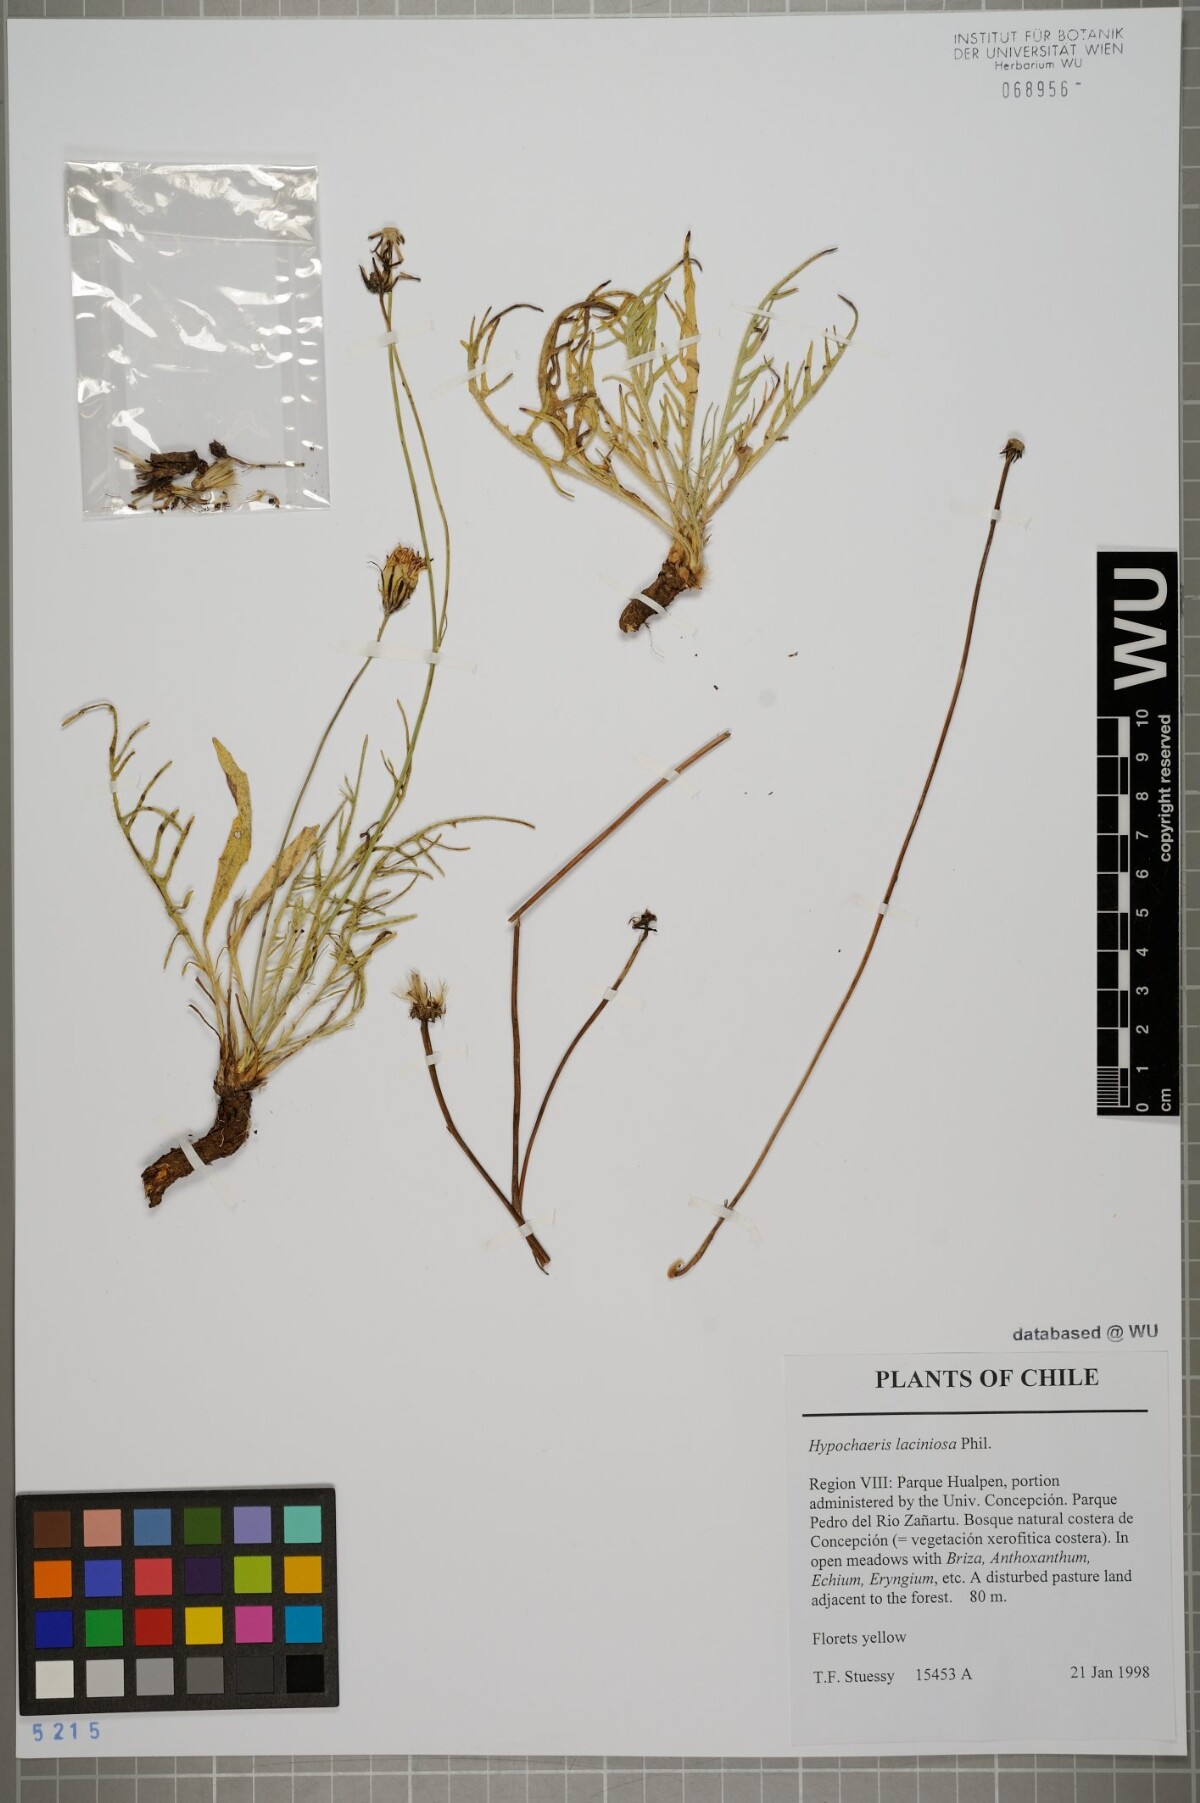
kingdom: Plantae
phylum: Tracheophyta
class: Magnoliopsida
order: Asterales
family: Asteraceae
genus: Hypochaeris
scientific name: Hypochaeris apargioides
